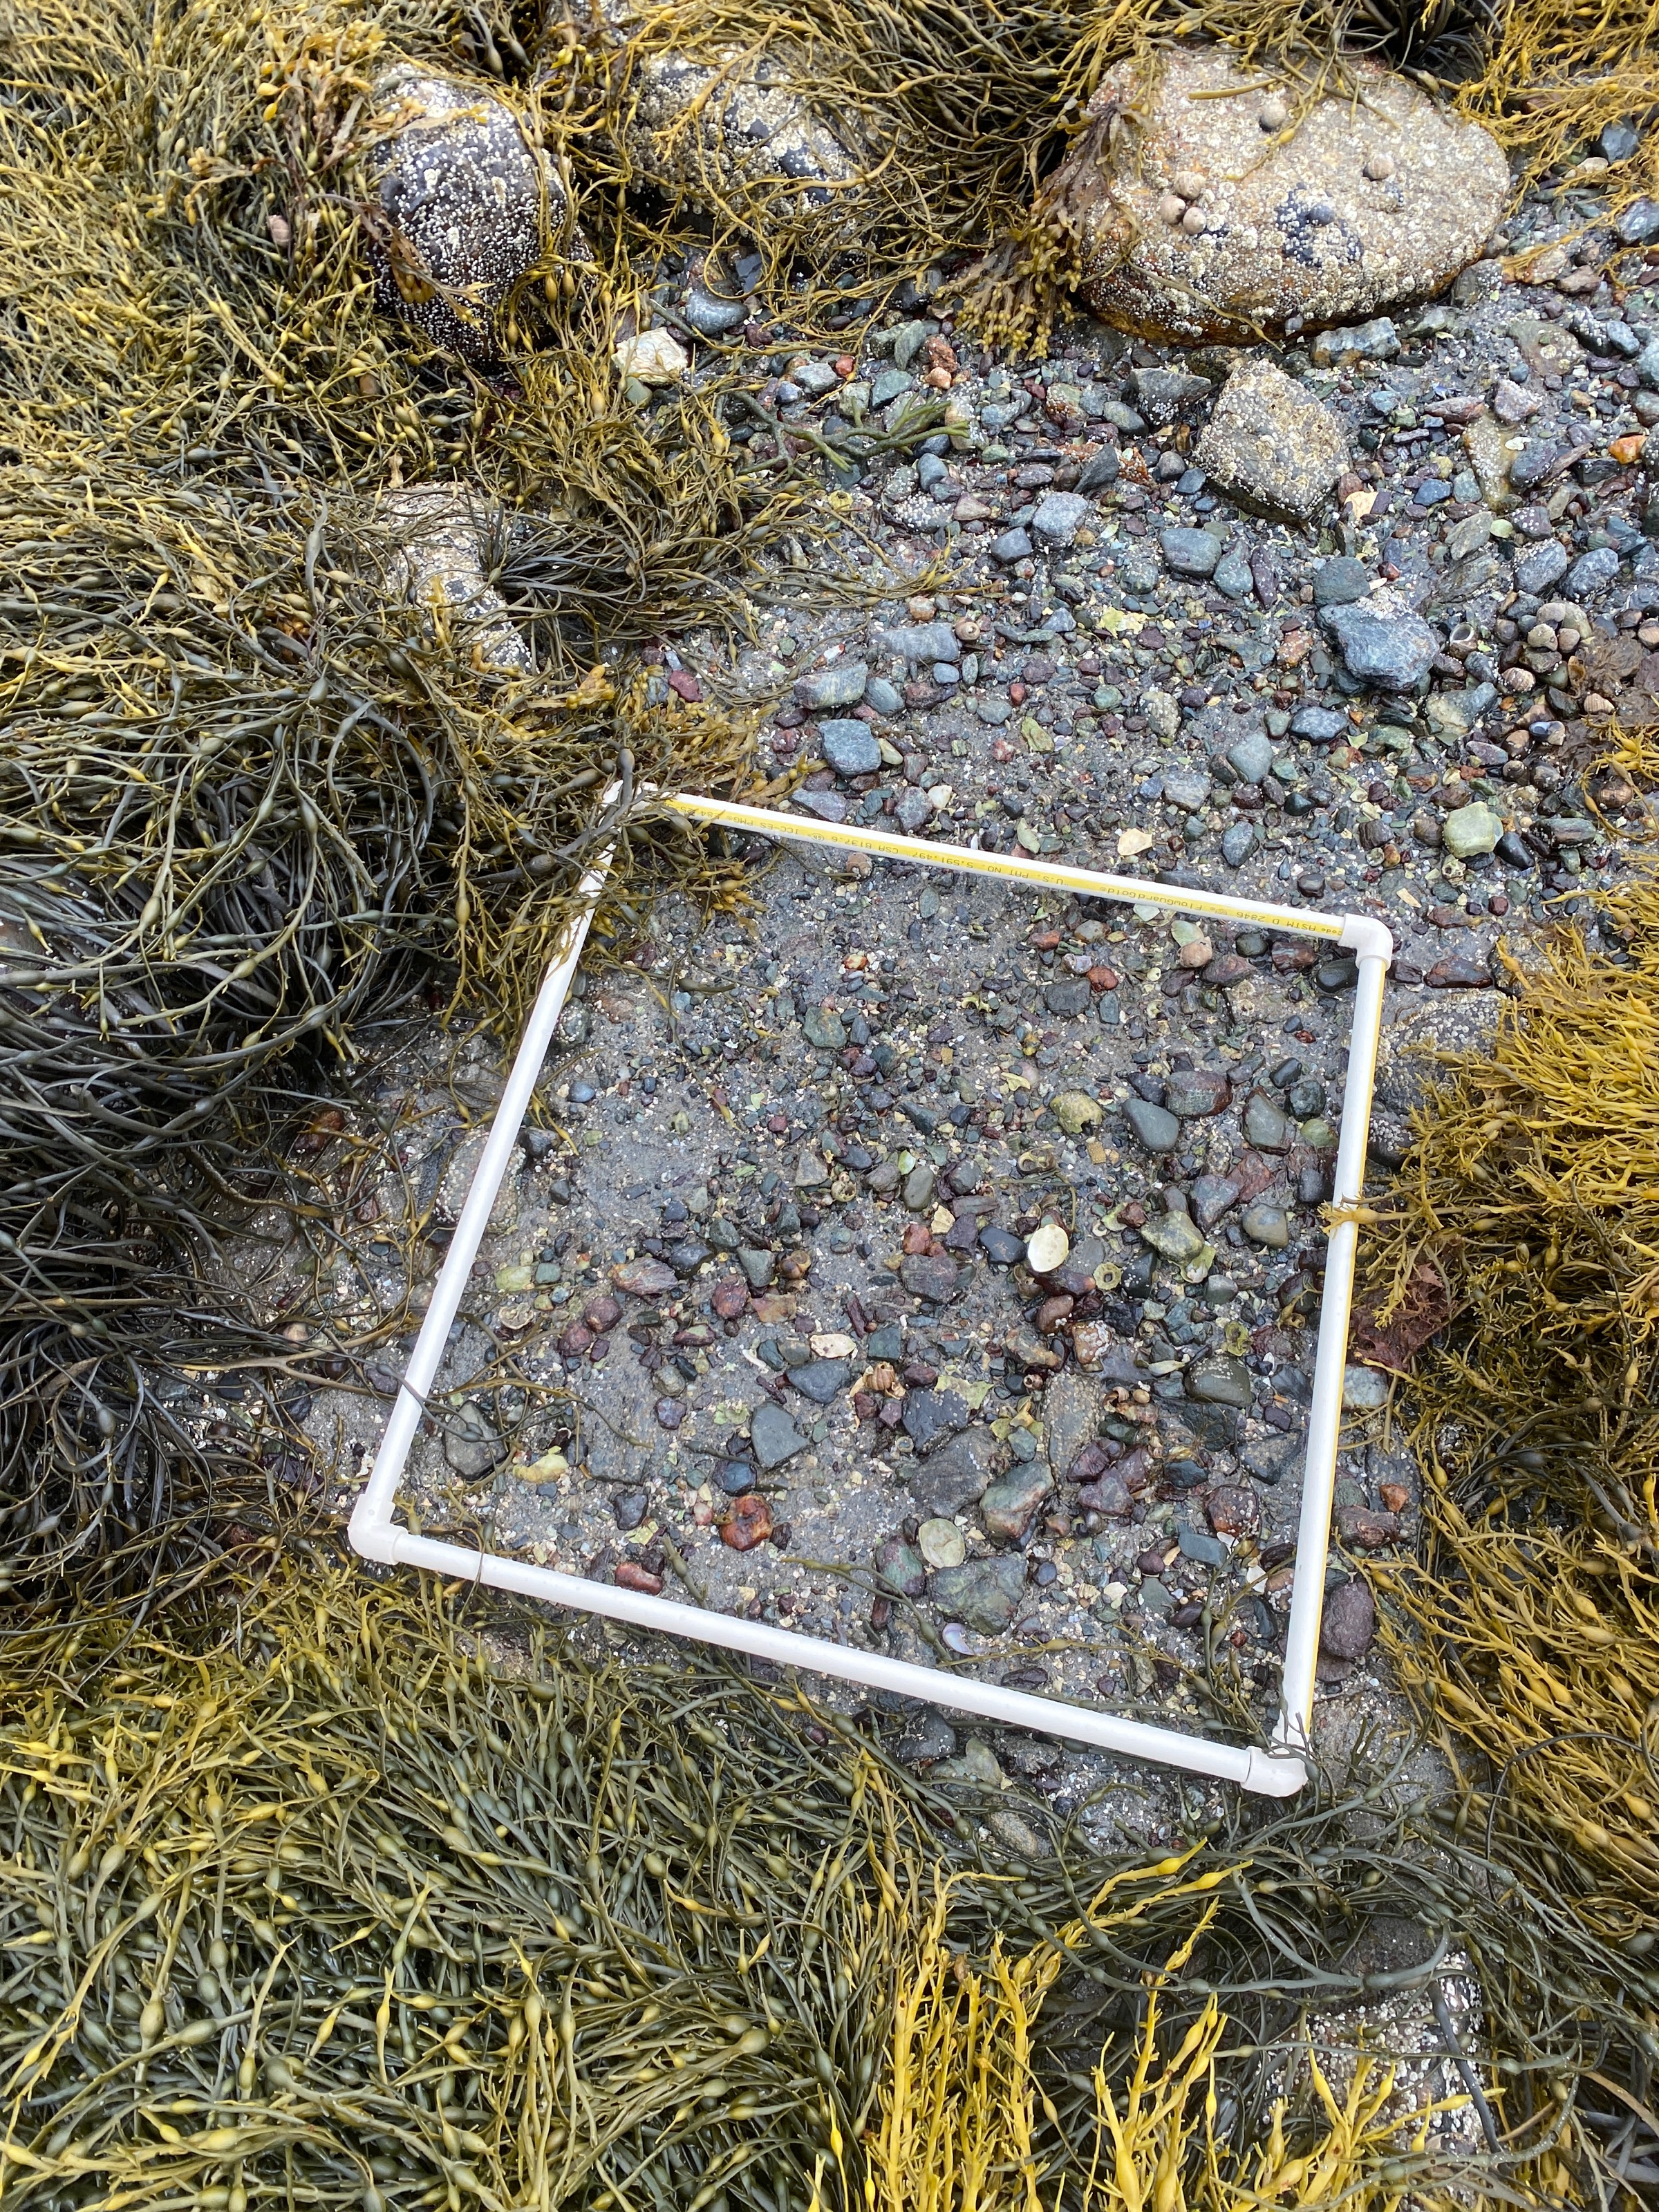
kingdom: Chromista
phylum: Ochrophyta
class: Phaeophyceae
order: Fucales
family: Fucaceae
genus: Ascophyllum
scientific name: Ascophyllum nodosum
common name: Rockweed
